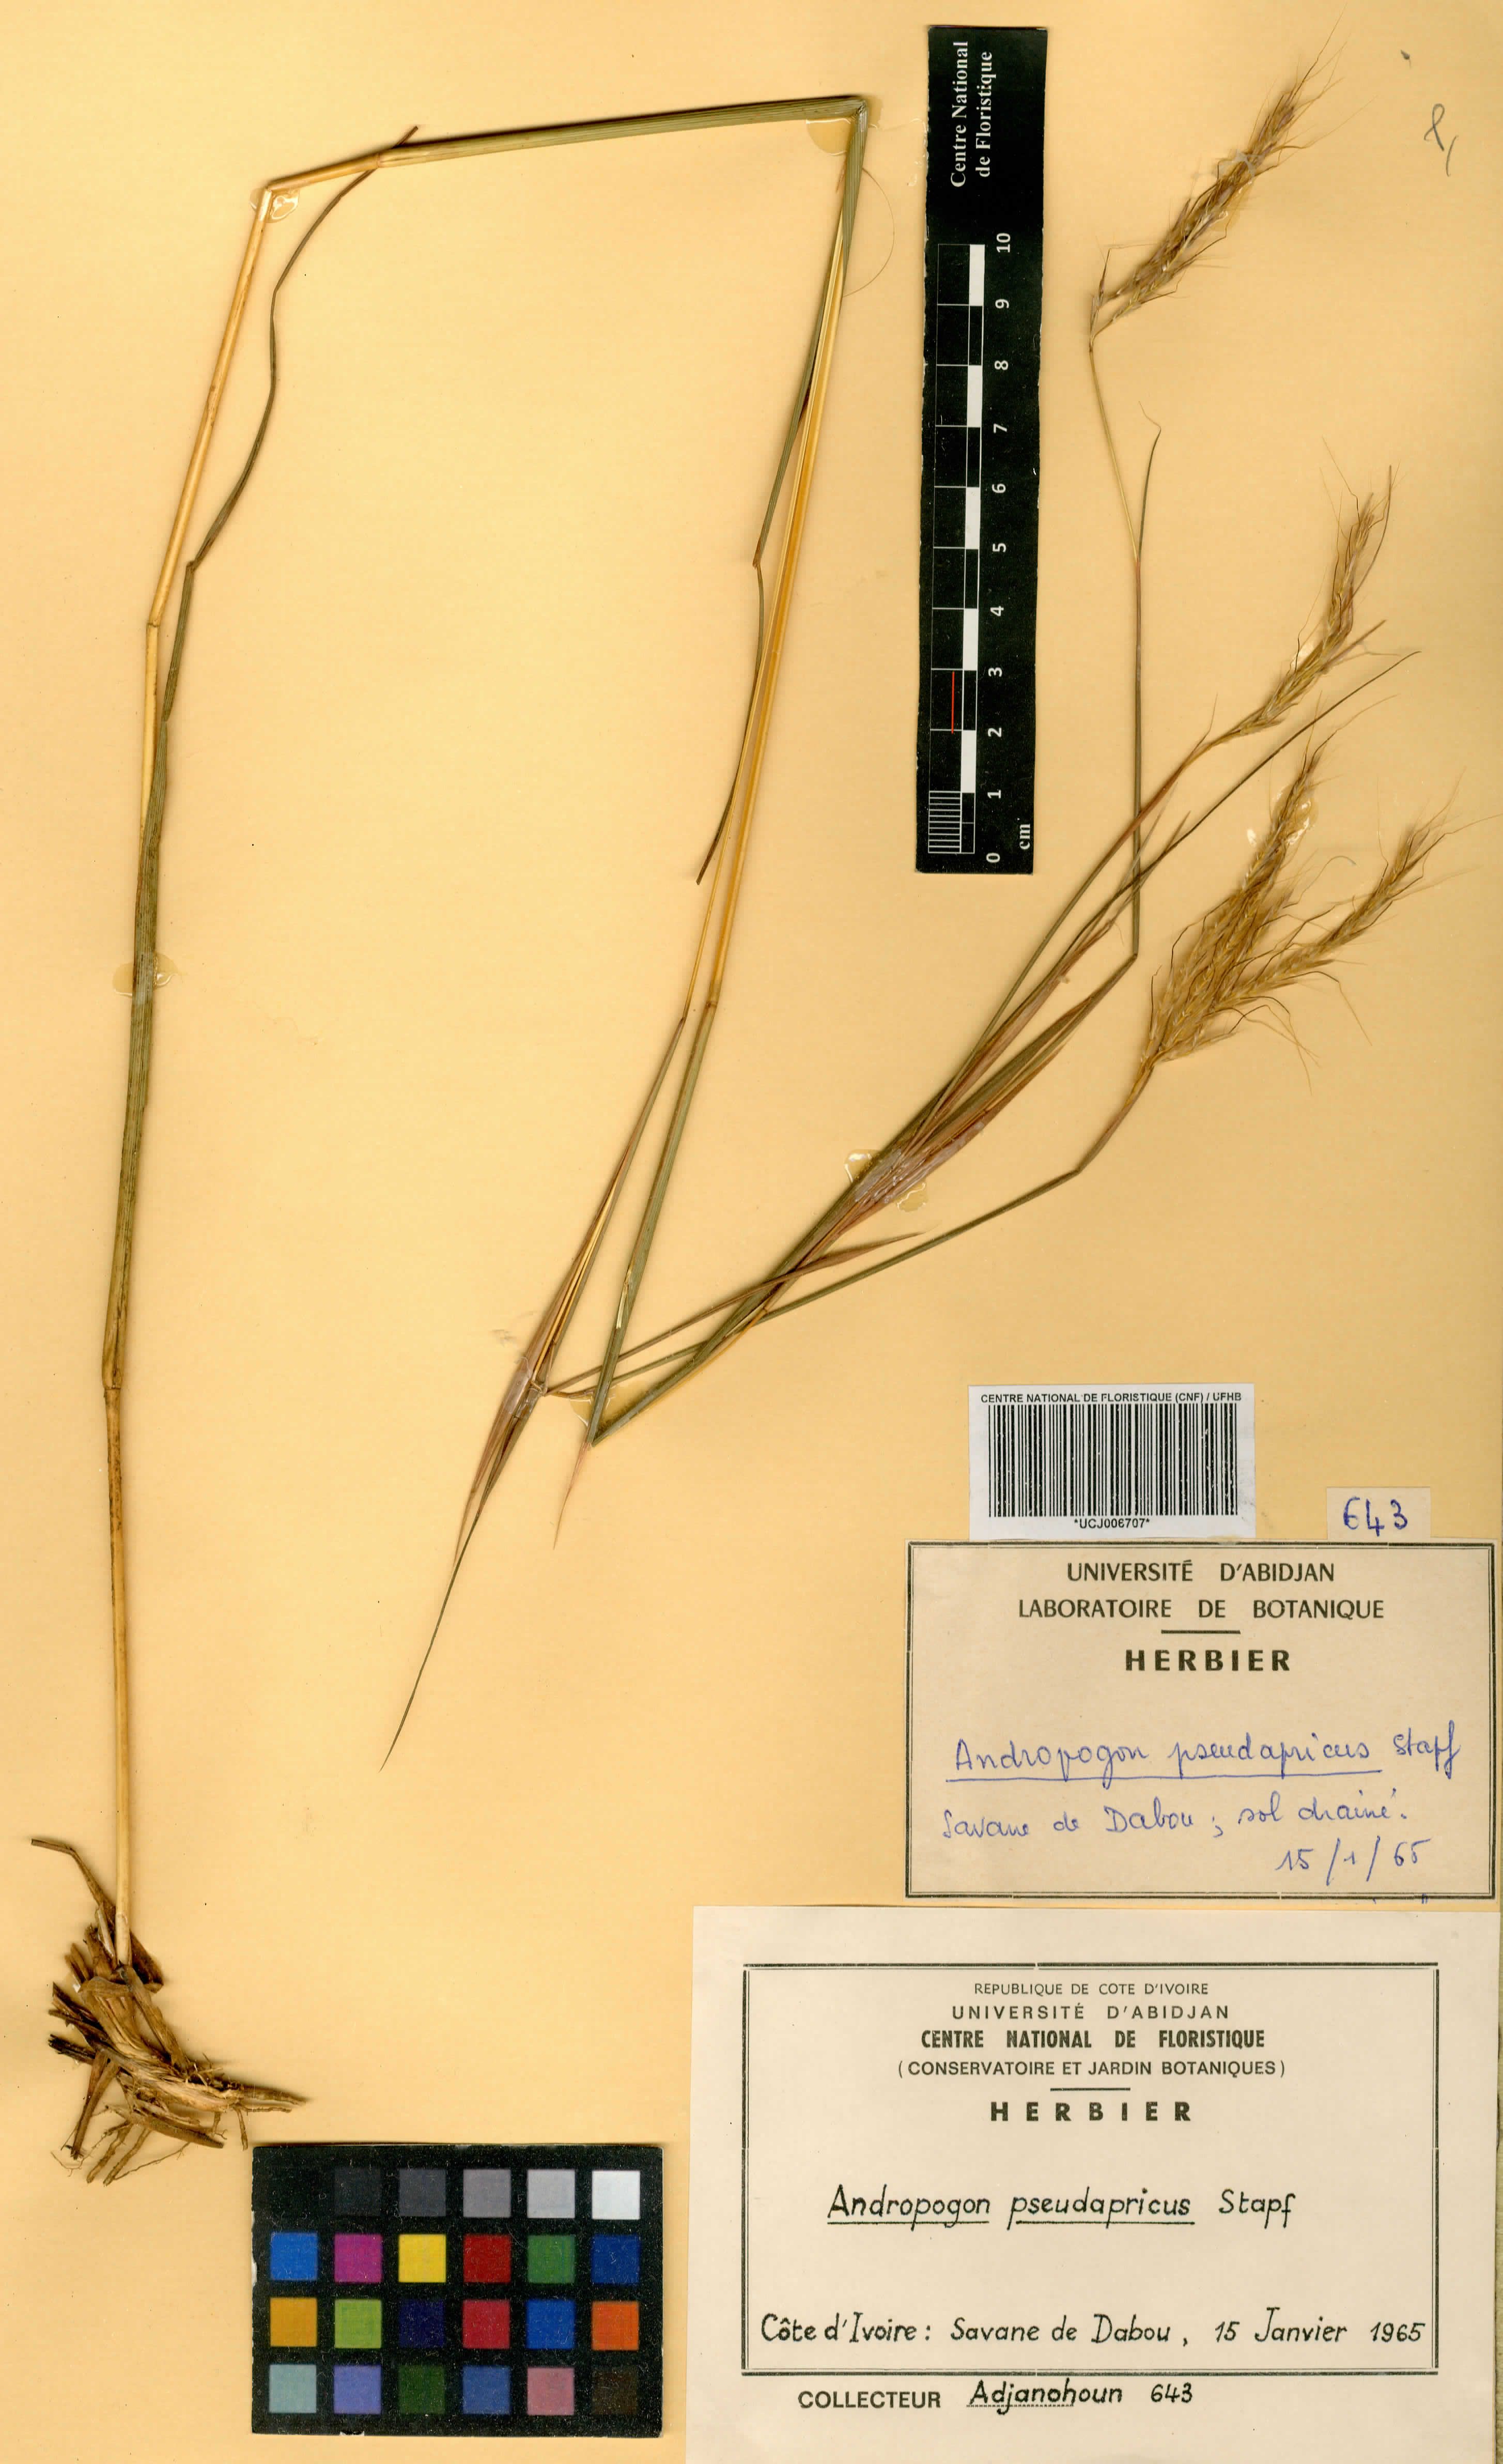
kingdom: Plantae
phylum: Tracheophyta
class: Liliopsida
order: Poales
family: Poaceae
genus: Andropogon
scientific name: Andropogon pseudapricus
